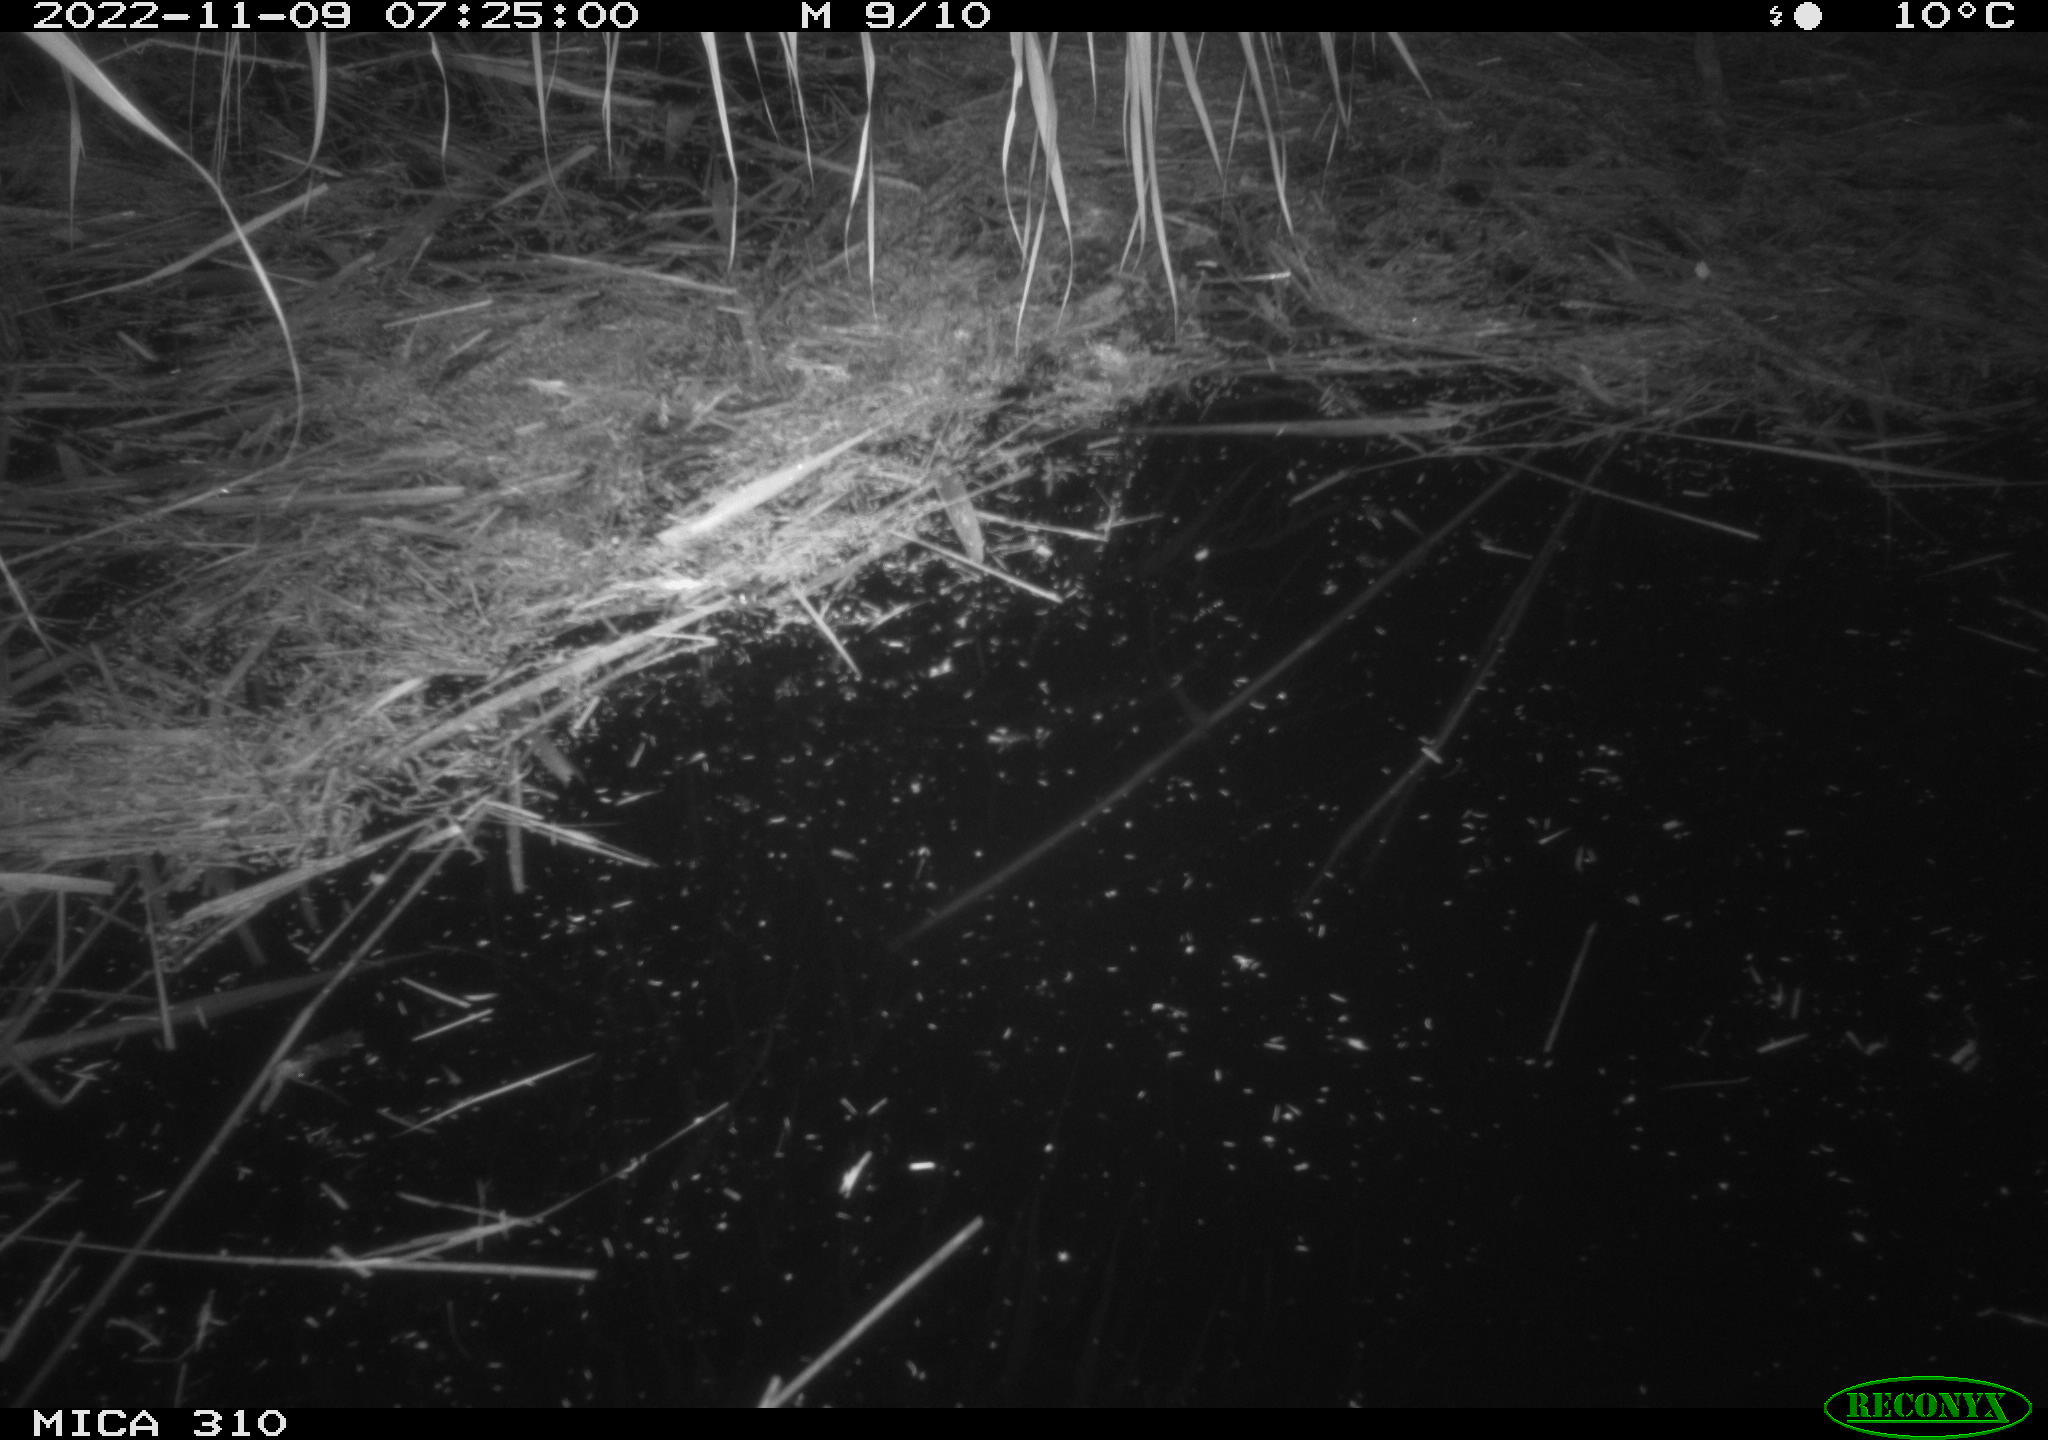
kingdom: Animalia
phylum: Chordata
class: Mammalia
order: Rodentia
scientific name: Rodentia
